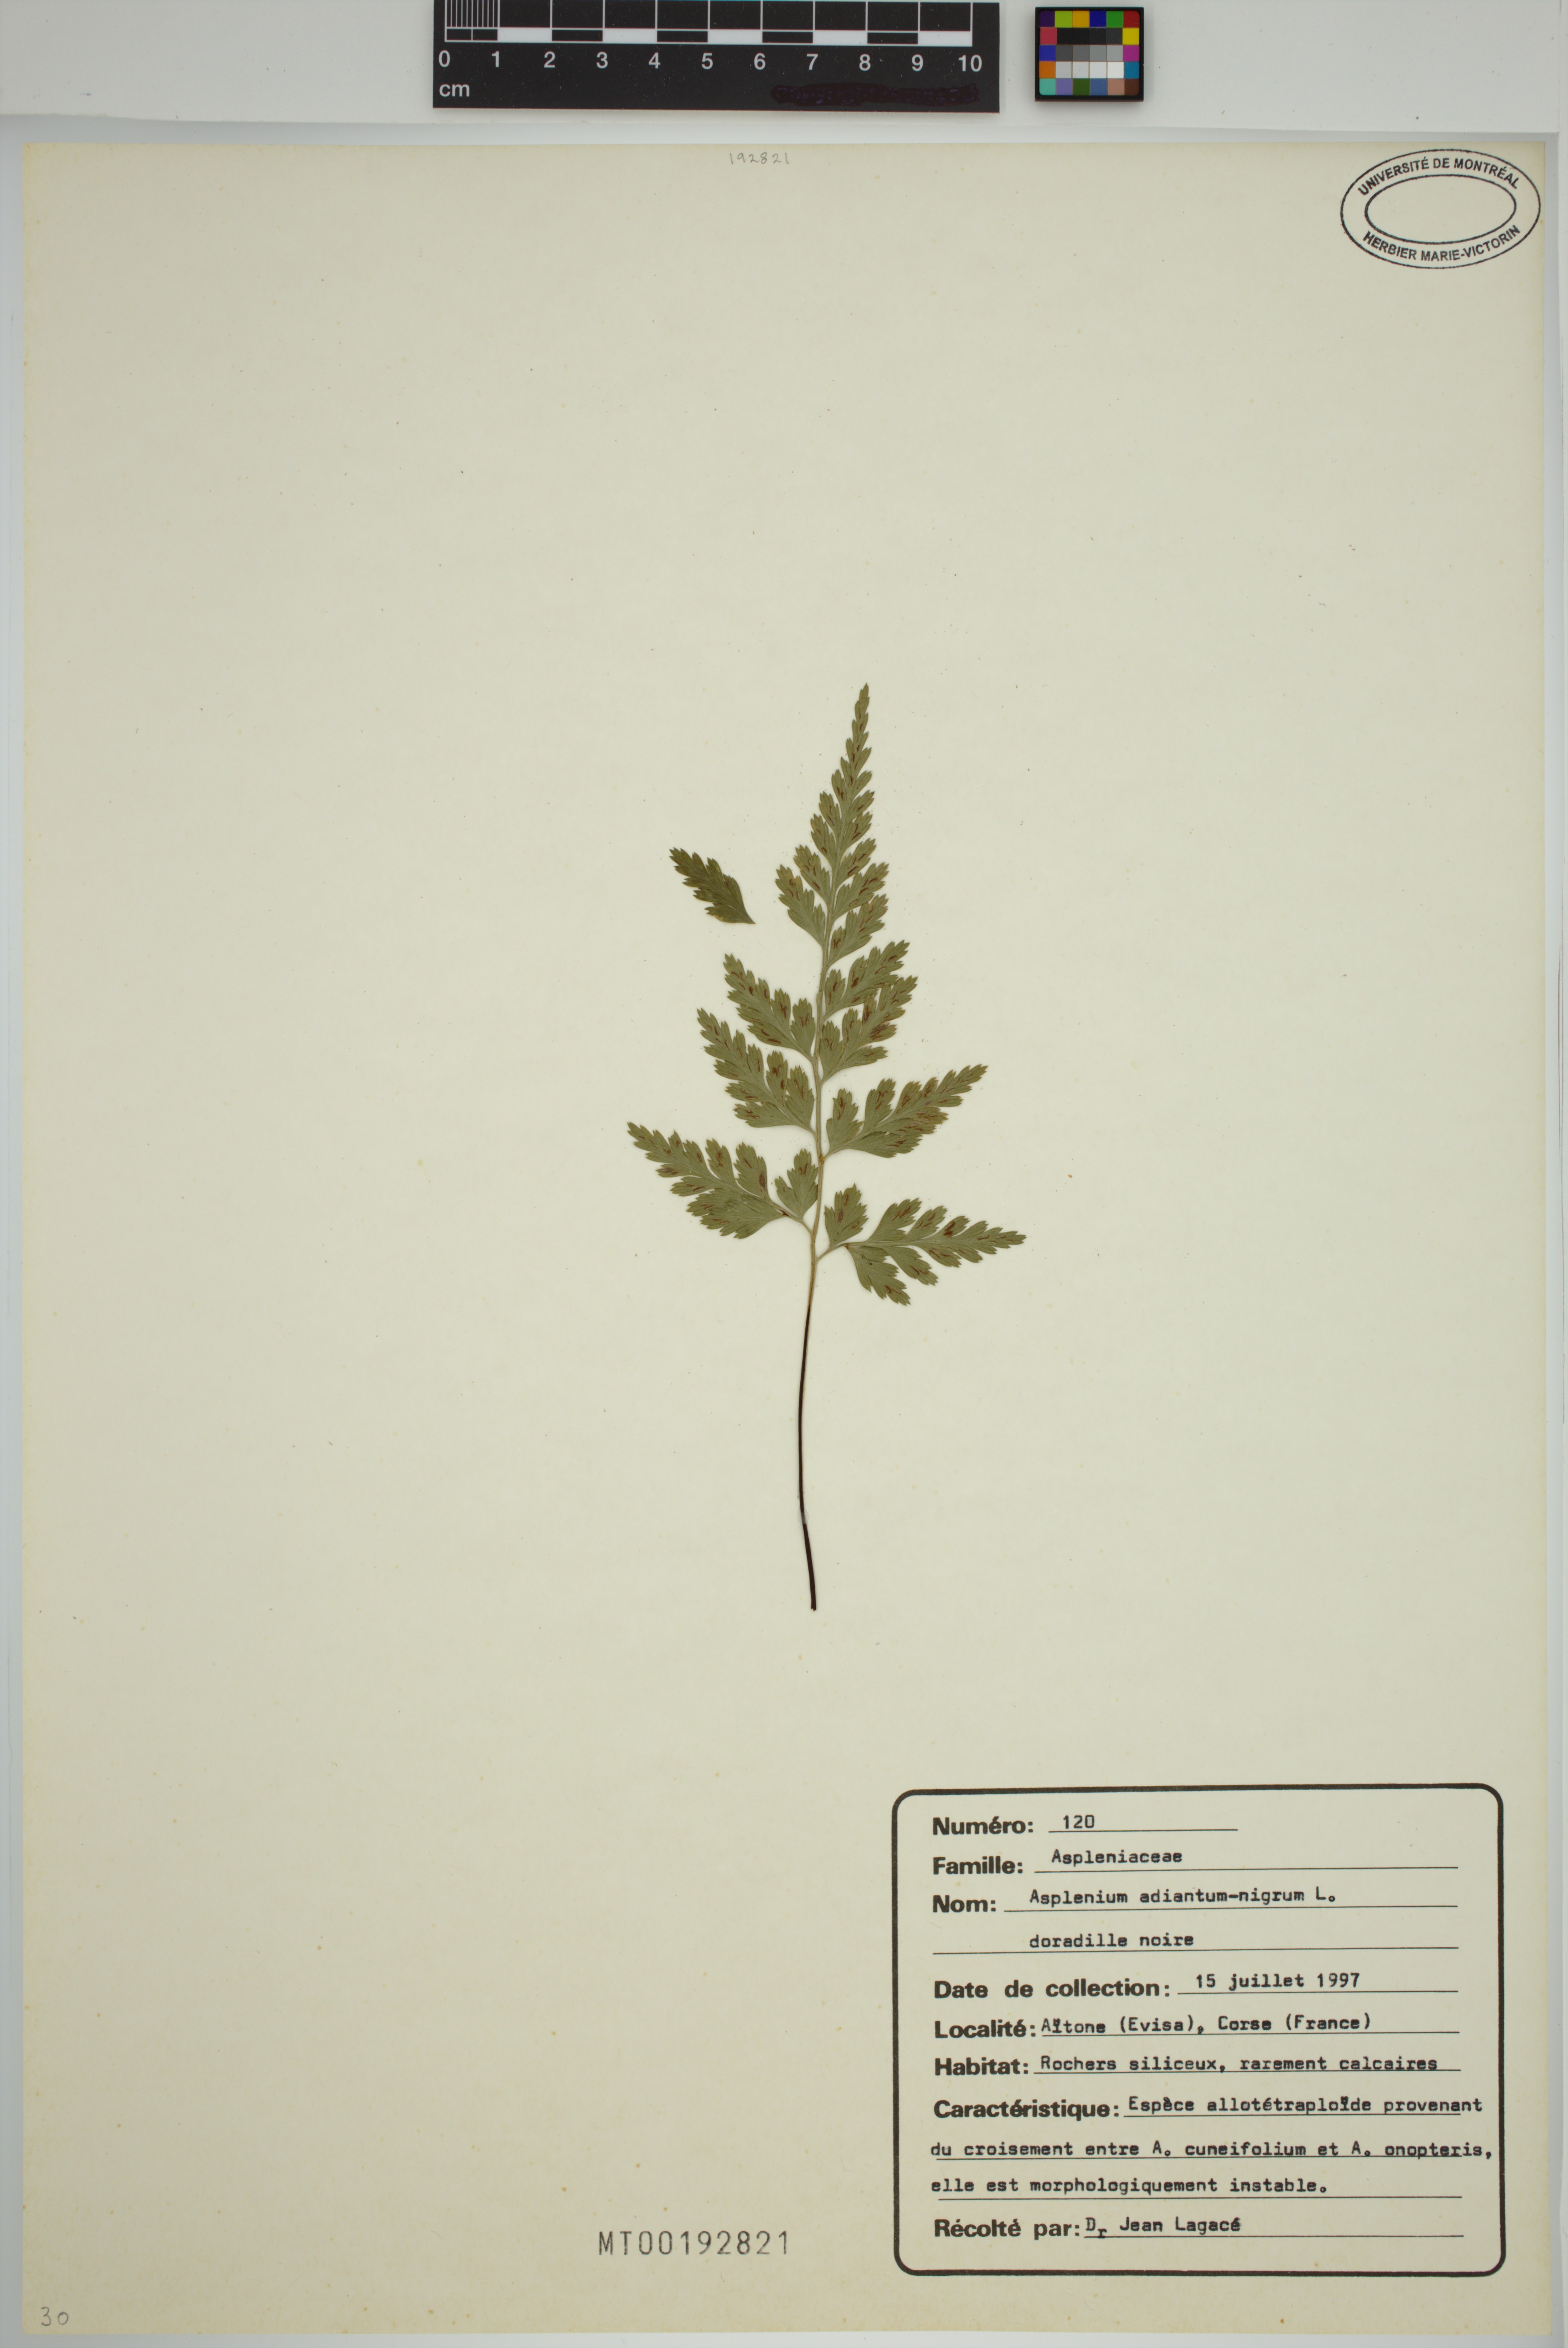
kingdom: Plantae
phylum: Tracheophyta
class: Polypodiopsida
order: Polypodiales
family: Aspleniaceae
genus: Asplenium
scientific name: Asplenium adiantum-nigrum
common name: Black spleenwort
